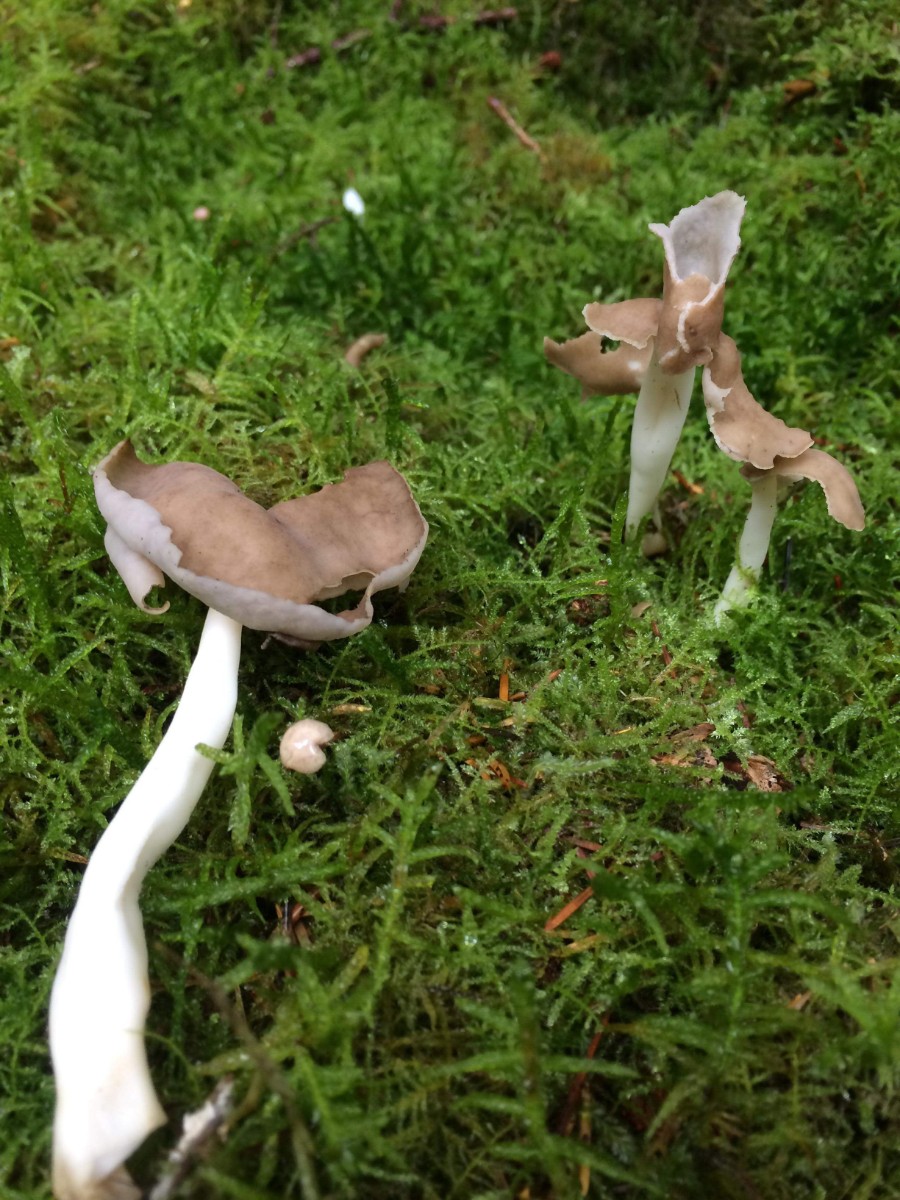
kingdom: Fungi
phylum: Ascomycota
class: Pezizomycetes
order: Pezizales
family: Helvellaceae
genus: Helvella
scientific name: Helvella elastica
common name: elastik-foldhat
